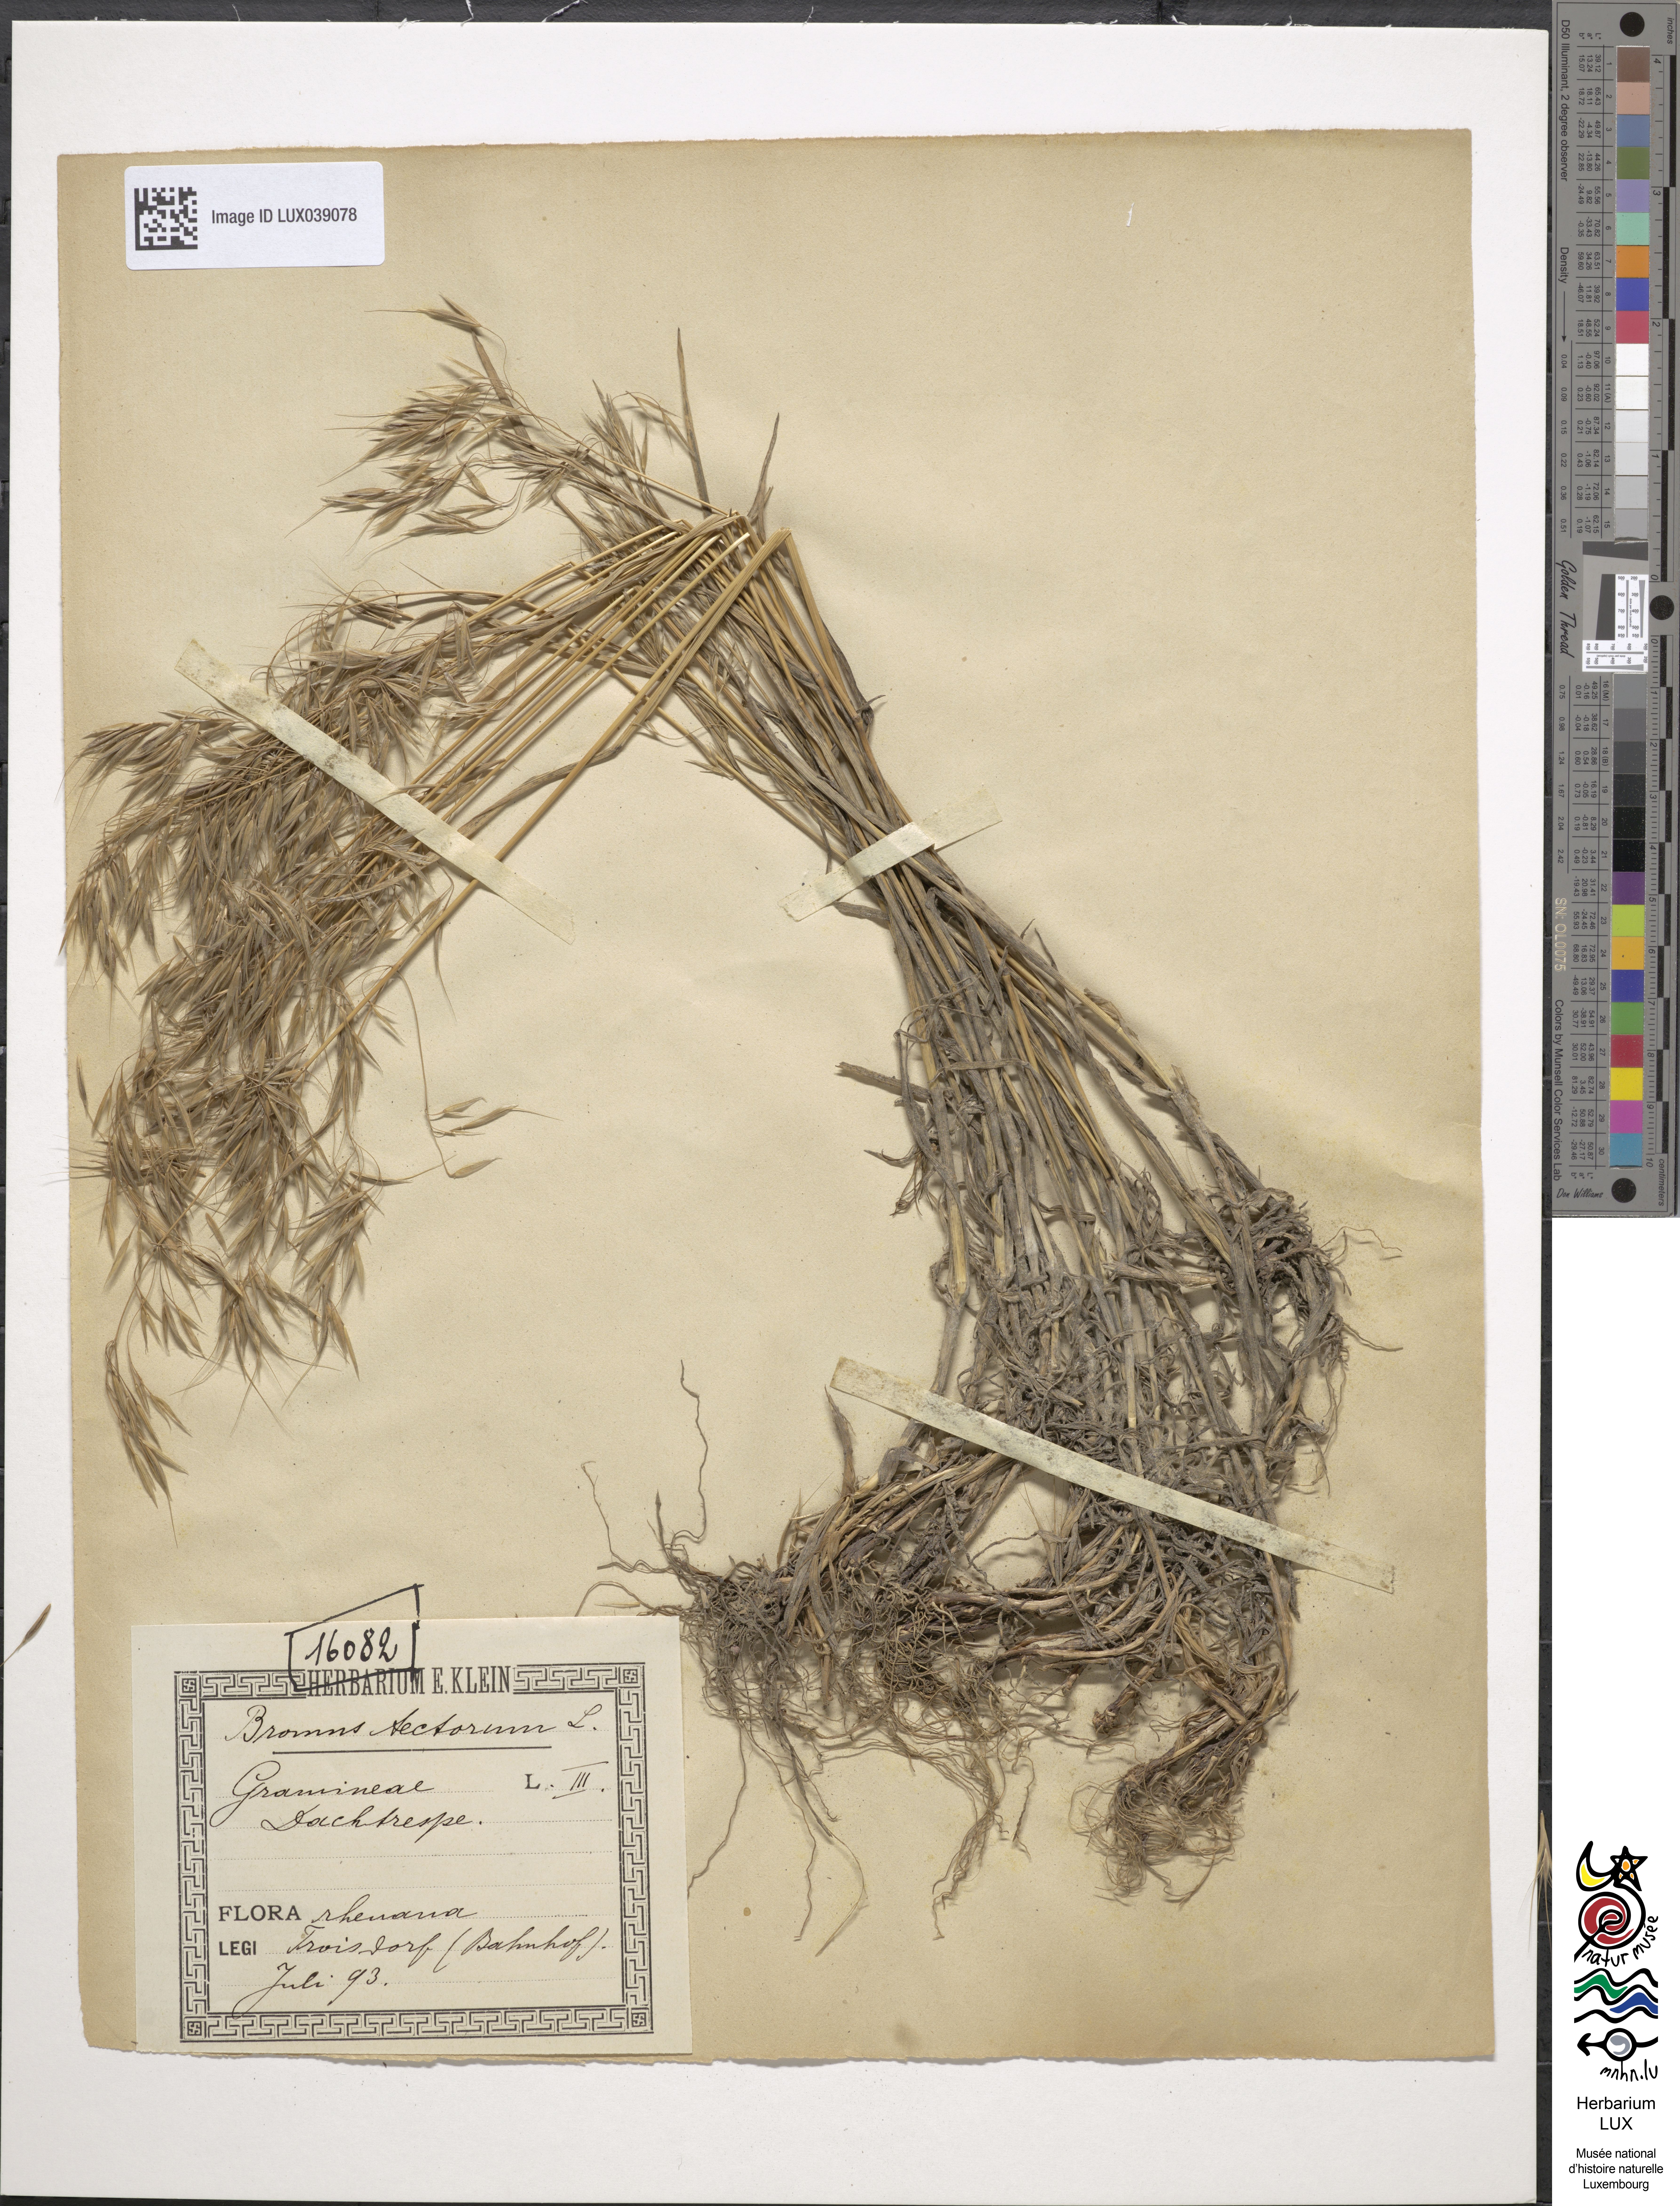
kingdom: Plantae
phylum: Tracheophyta
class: Liliopsida
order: Poales
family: Poaceae
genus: Bromus
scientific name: Bromus tectorum
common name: Cheatgrass
